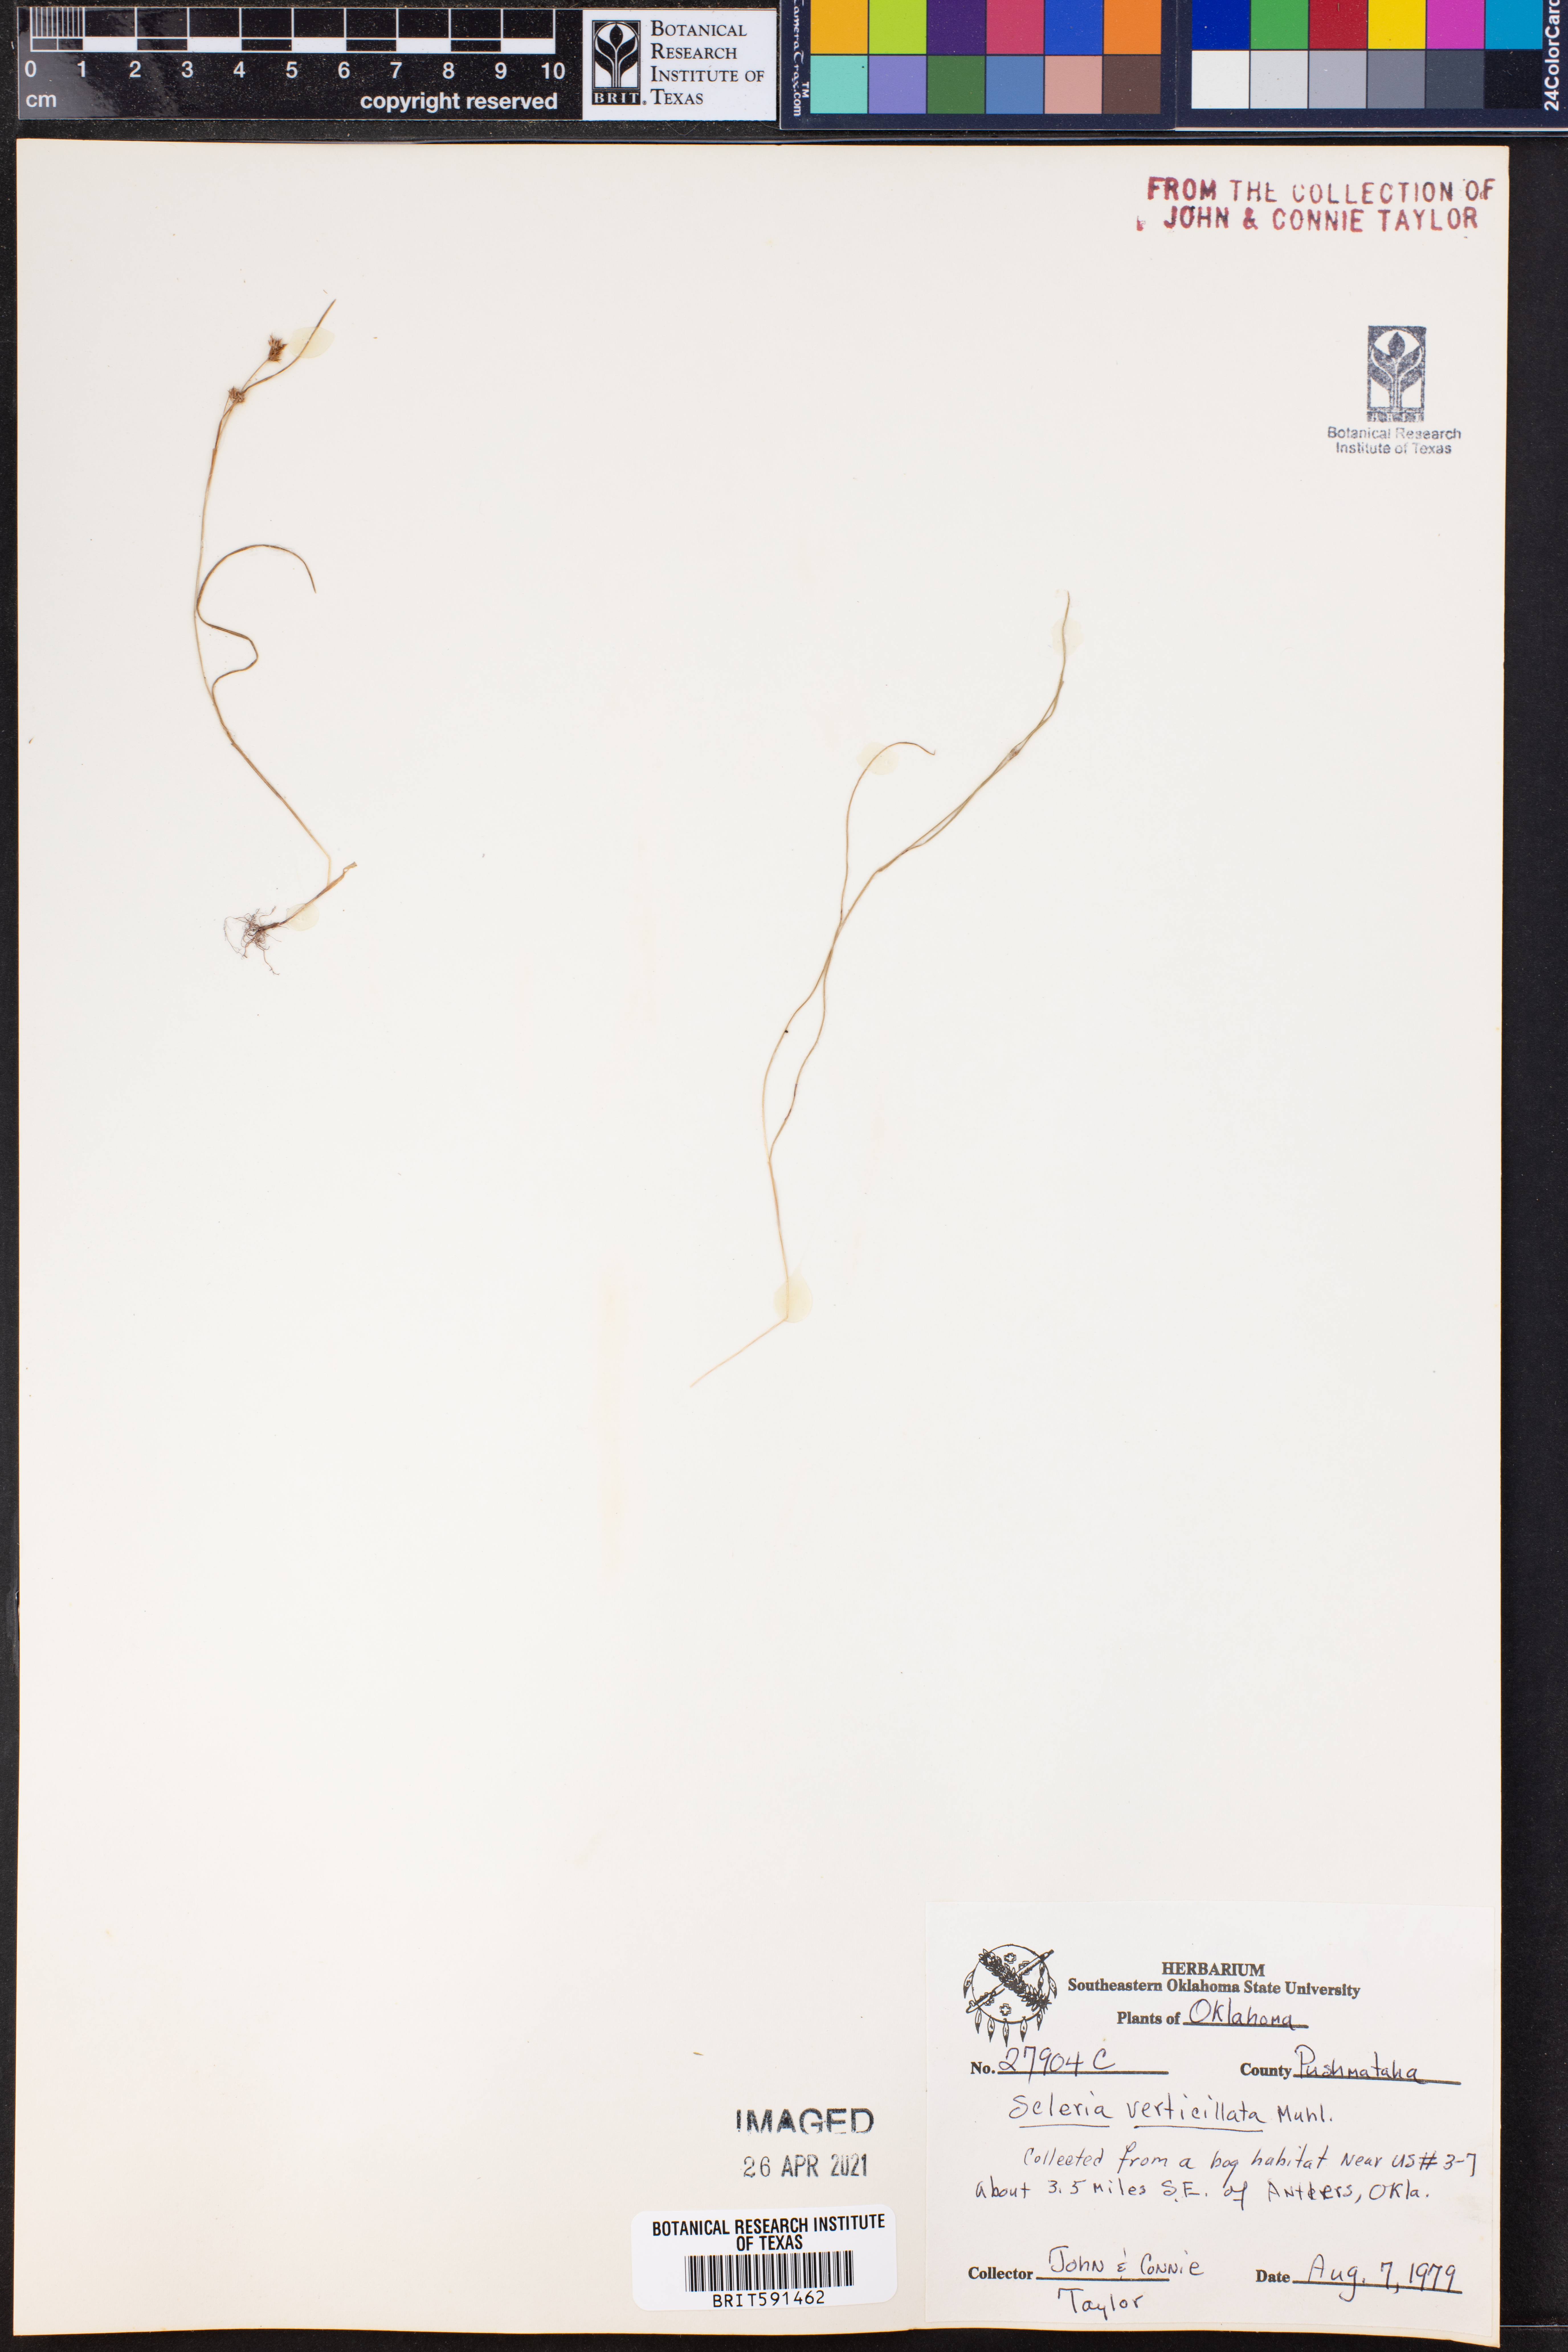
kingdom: Plantae
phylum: Tracheophyta
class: Liliopsida
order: Poales
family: Cyperaceae
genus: Scleria
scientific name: Scleria verticillata
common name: Low nutrush
